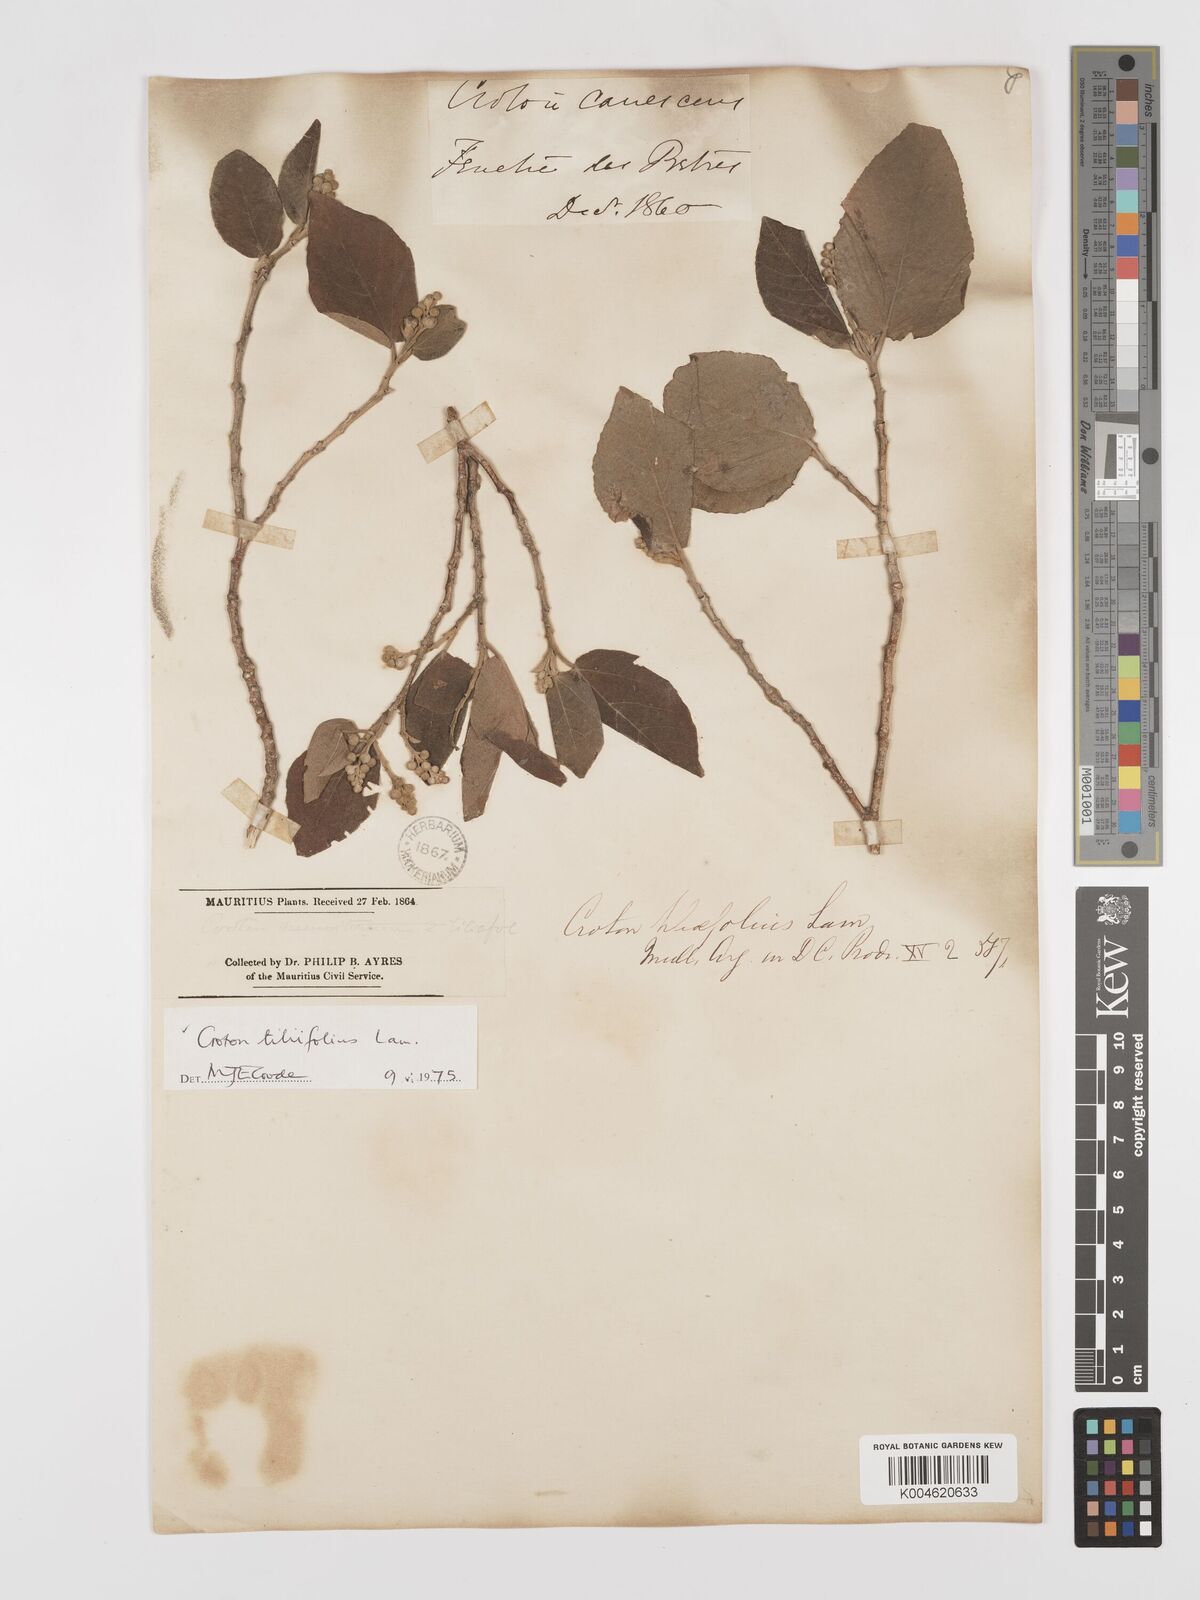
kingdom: Plantae
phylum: Tracheophyta
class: Magnoliopsida
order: Malpighiales
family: Euphorbiaceae
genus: Croton
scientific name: Croton
